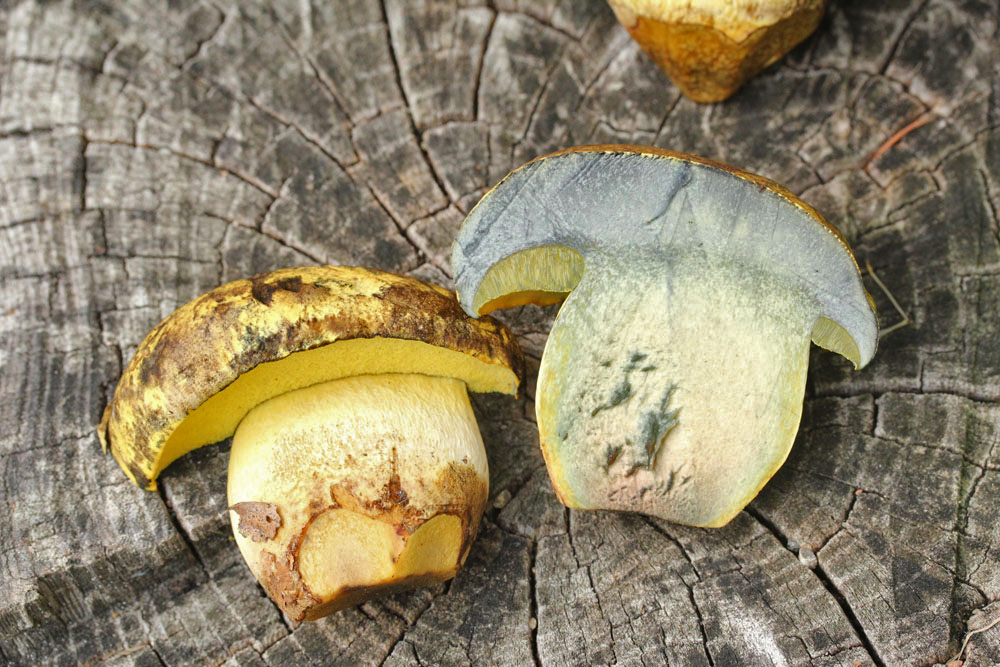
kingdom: Fungi
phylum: Basidiomycota
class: Agaricomycetes
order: Boletales
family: Boletaceae
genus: Neoboletus
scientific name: Neoboletus praestigiator
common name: gul indigorørhat
